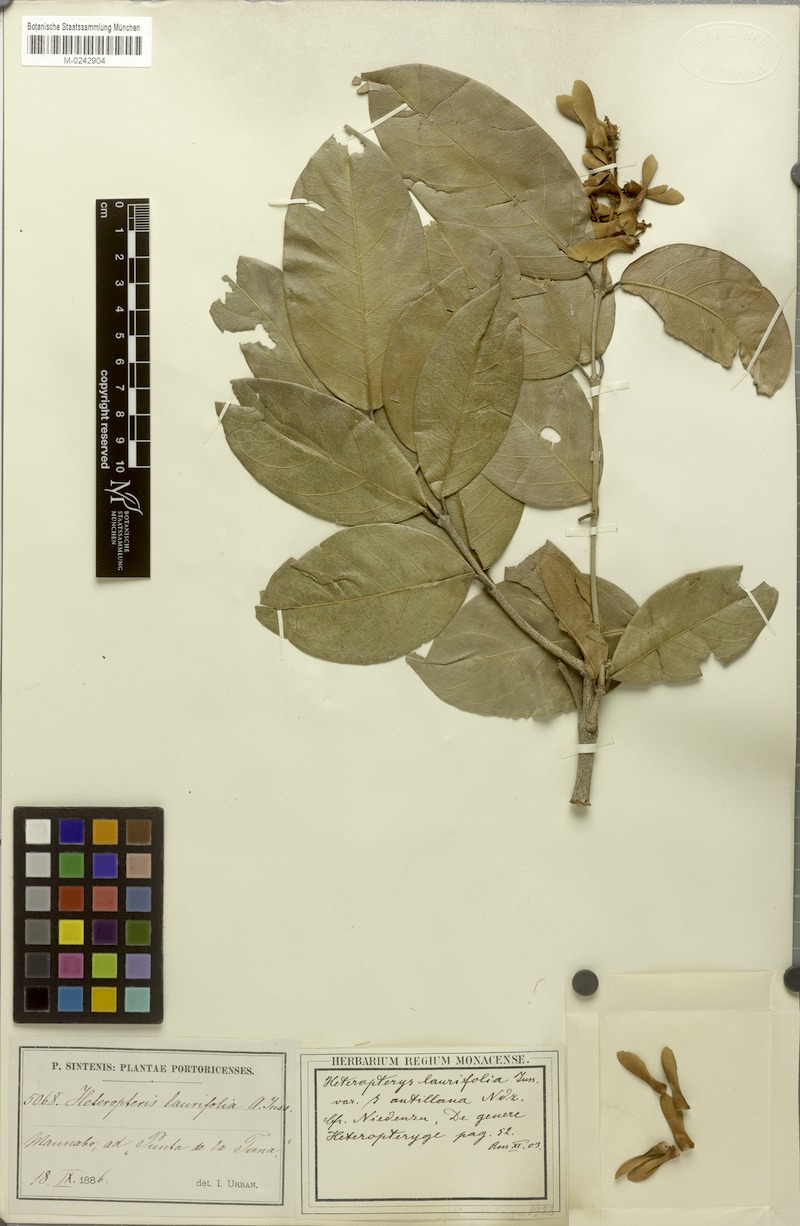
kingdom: Plantae
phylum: Tracheophyta
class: Magnoliopsida
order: Malpighiales
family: Malpighiaceae
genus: Heteropterys
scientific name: Heteropterys laurifolia
